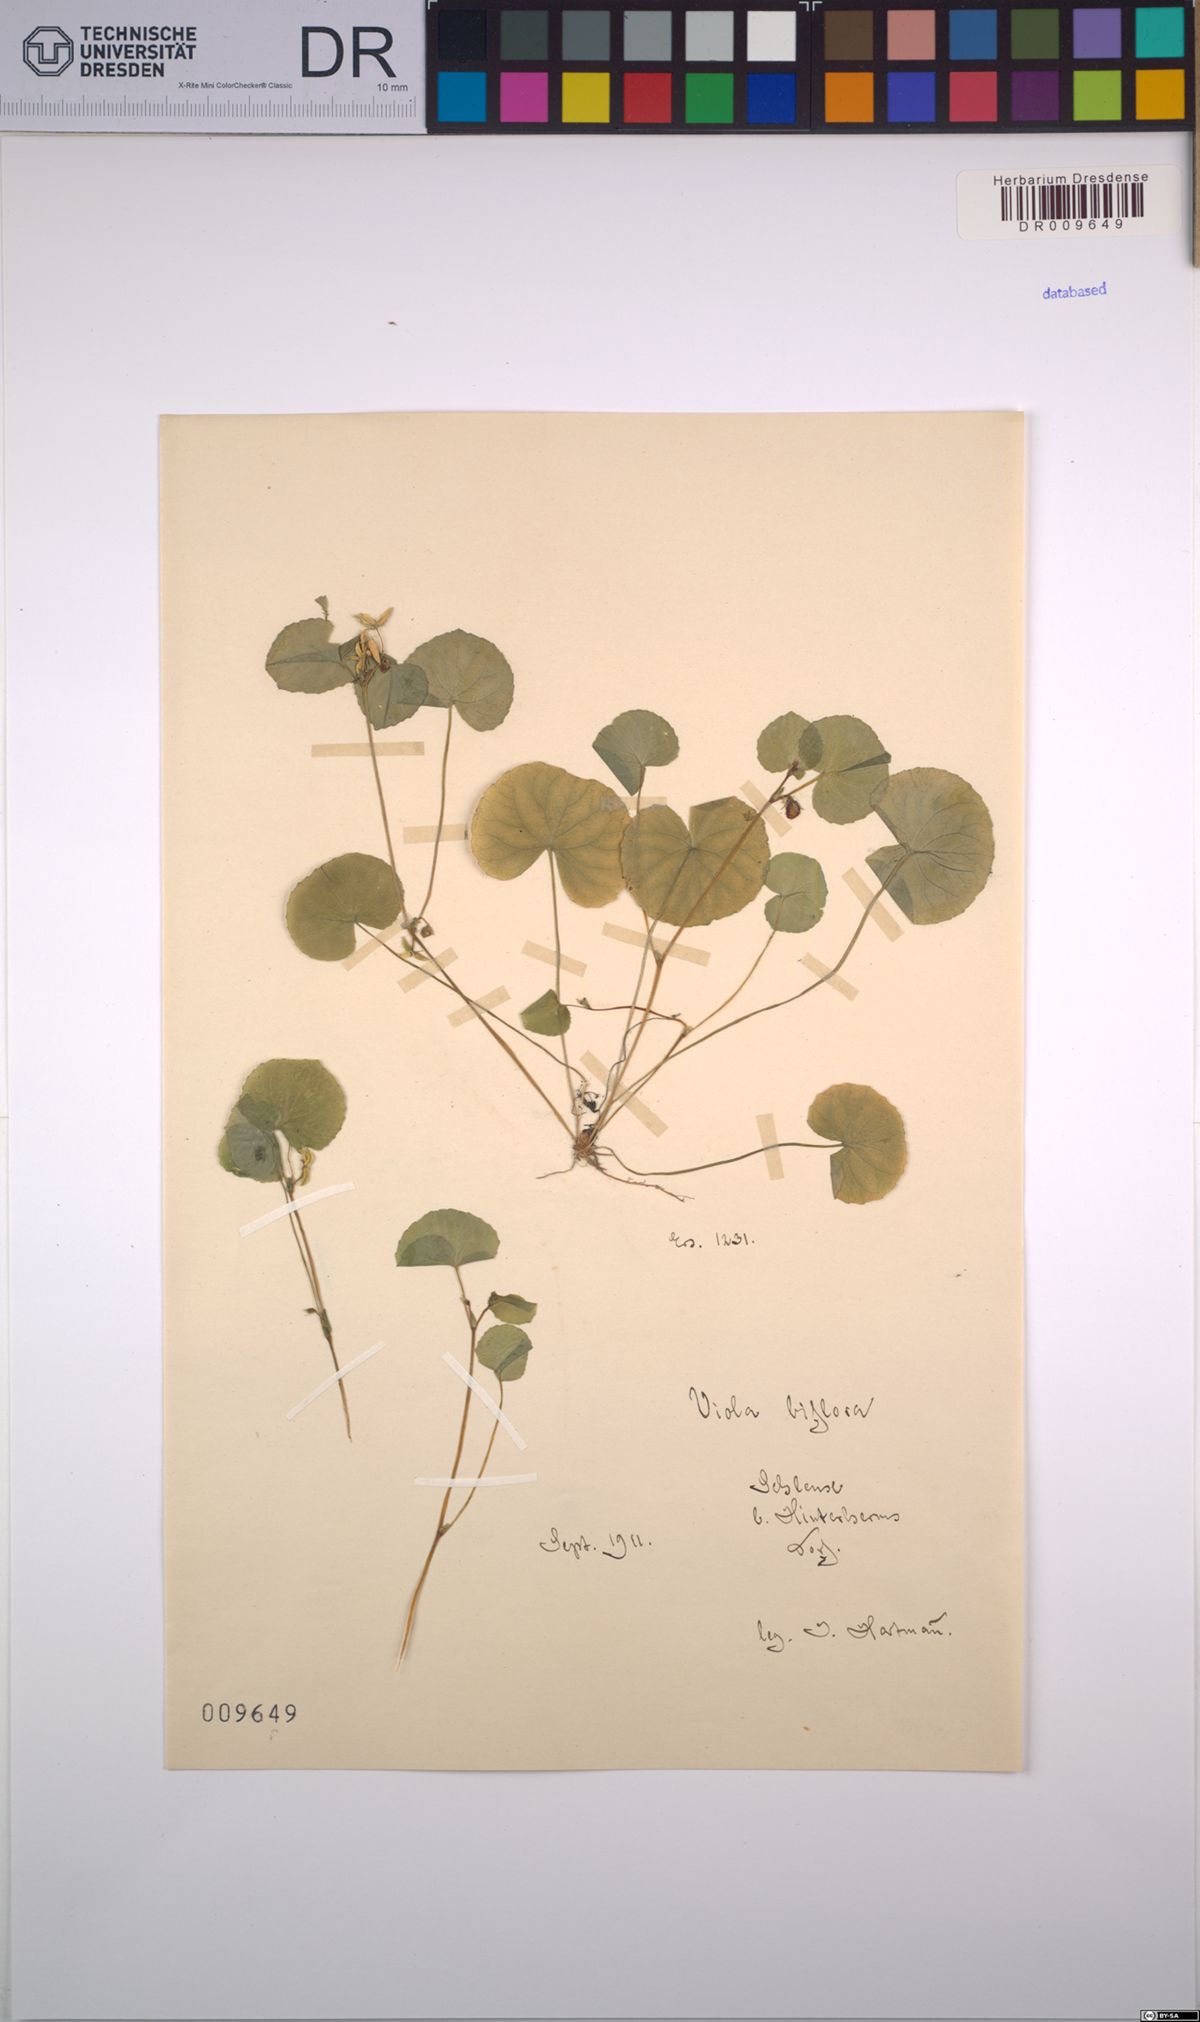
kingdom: Plantae
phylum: Tracheophyta
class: Magnoliopsida
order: Malpighiales
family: Violaceae
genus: Viola
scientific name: Viola biflora
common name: Alpine yellow violet
